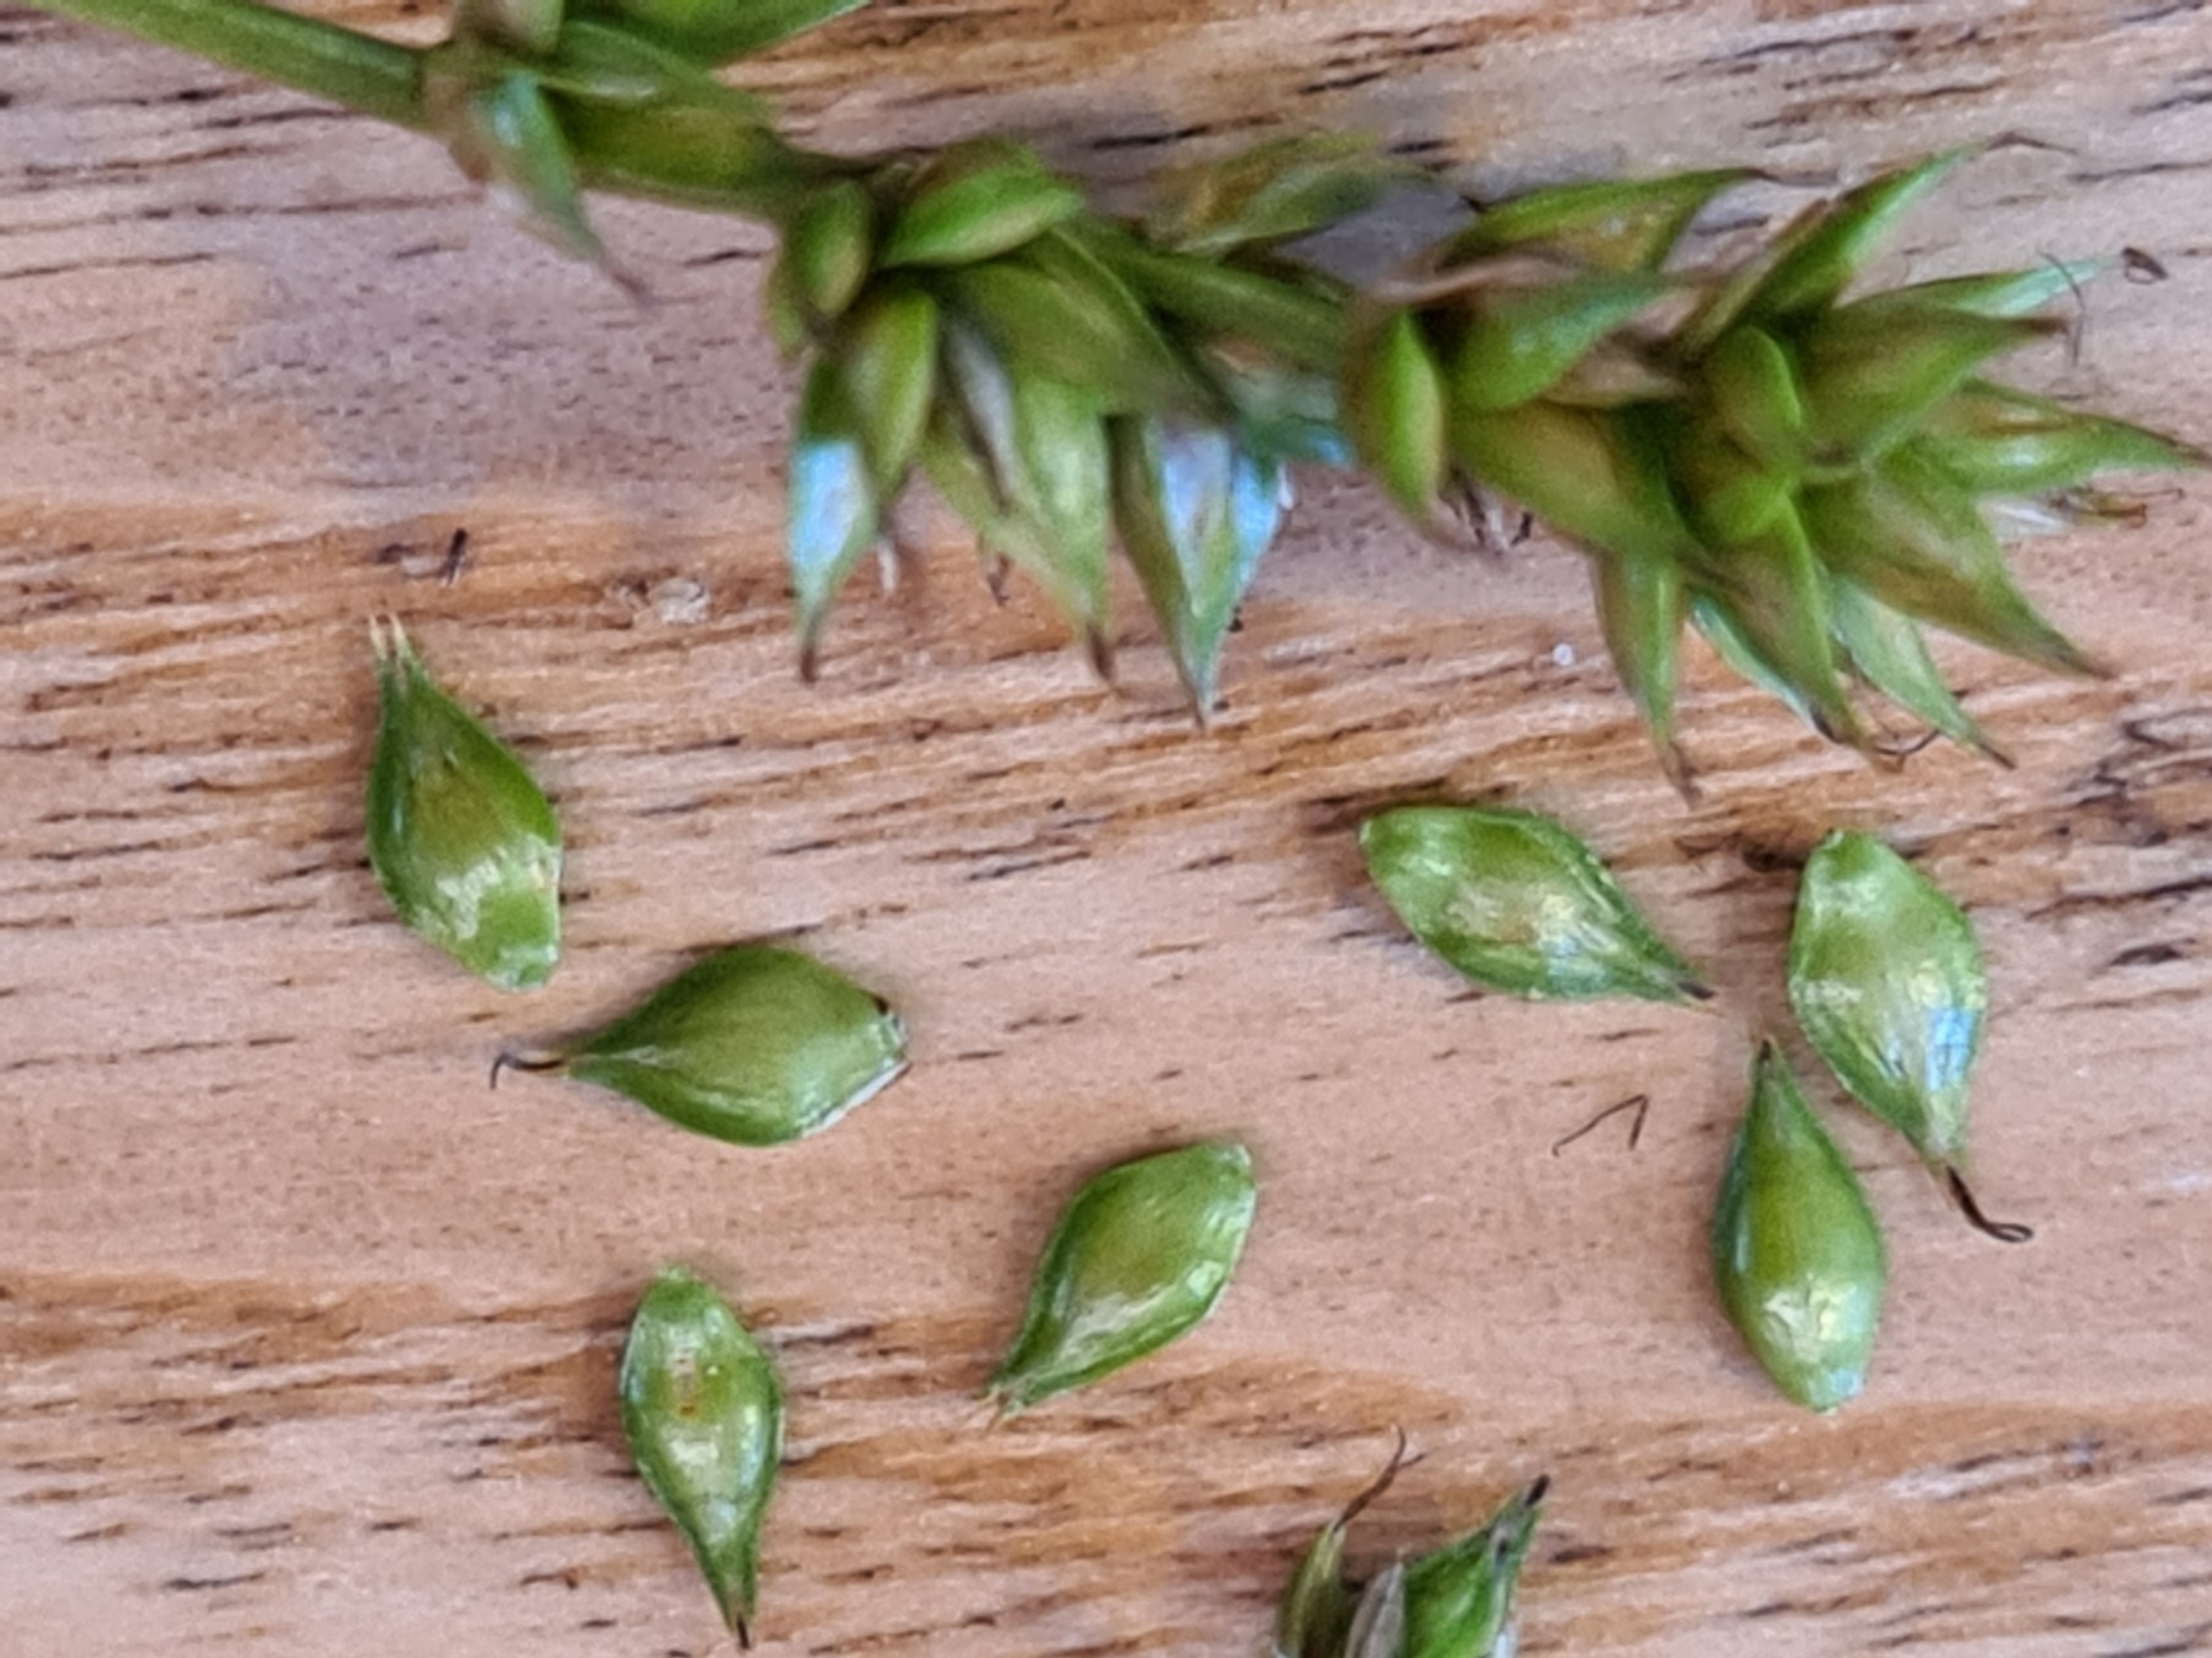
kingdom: Plantae
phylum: Tracheophyta
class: Liliopsida
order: Poales
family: Cyperaceae
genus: Carex
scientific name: Carex divulsa
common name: Mellembrudt star
